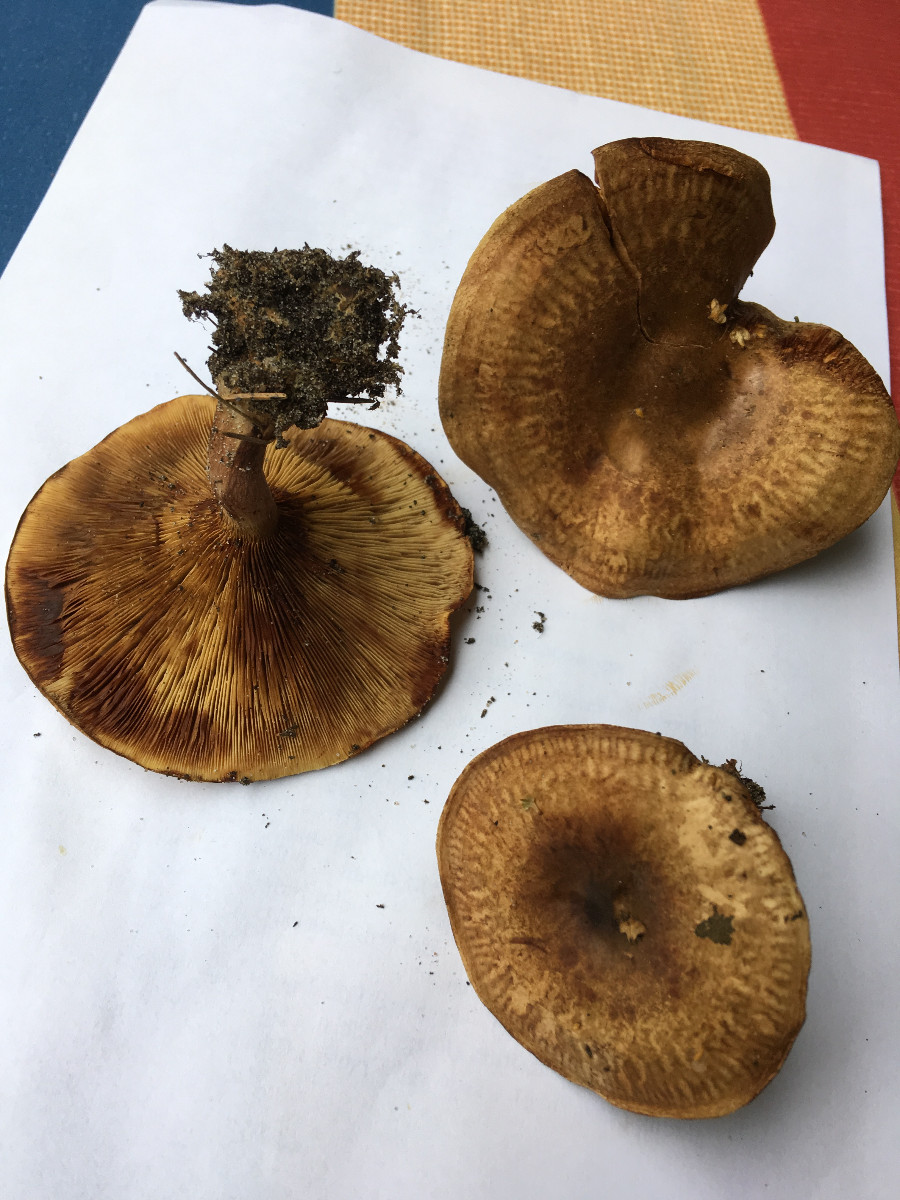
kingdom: Fungi
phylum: Basidiomycota
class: Agaricomycetes
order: Boletales
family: Paxillaceae
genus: Paxillus
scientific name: Paxillus rubicundulus
